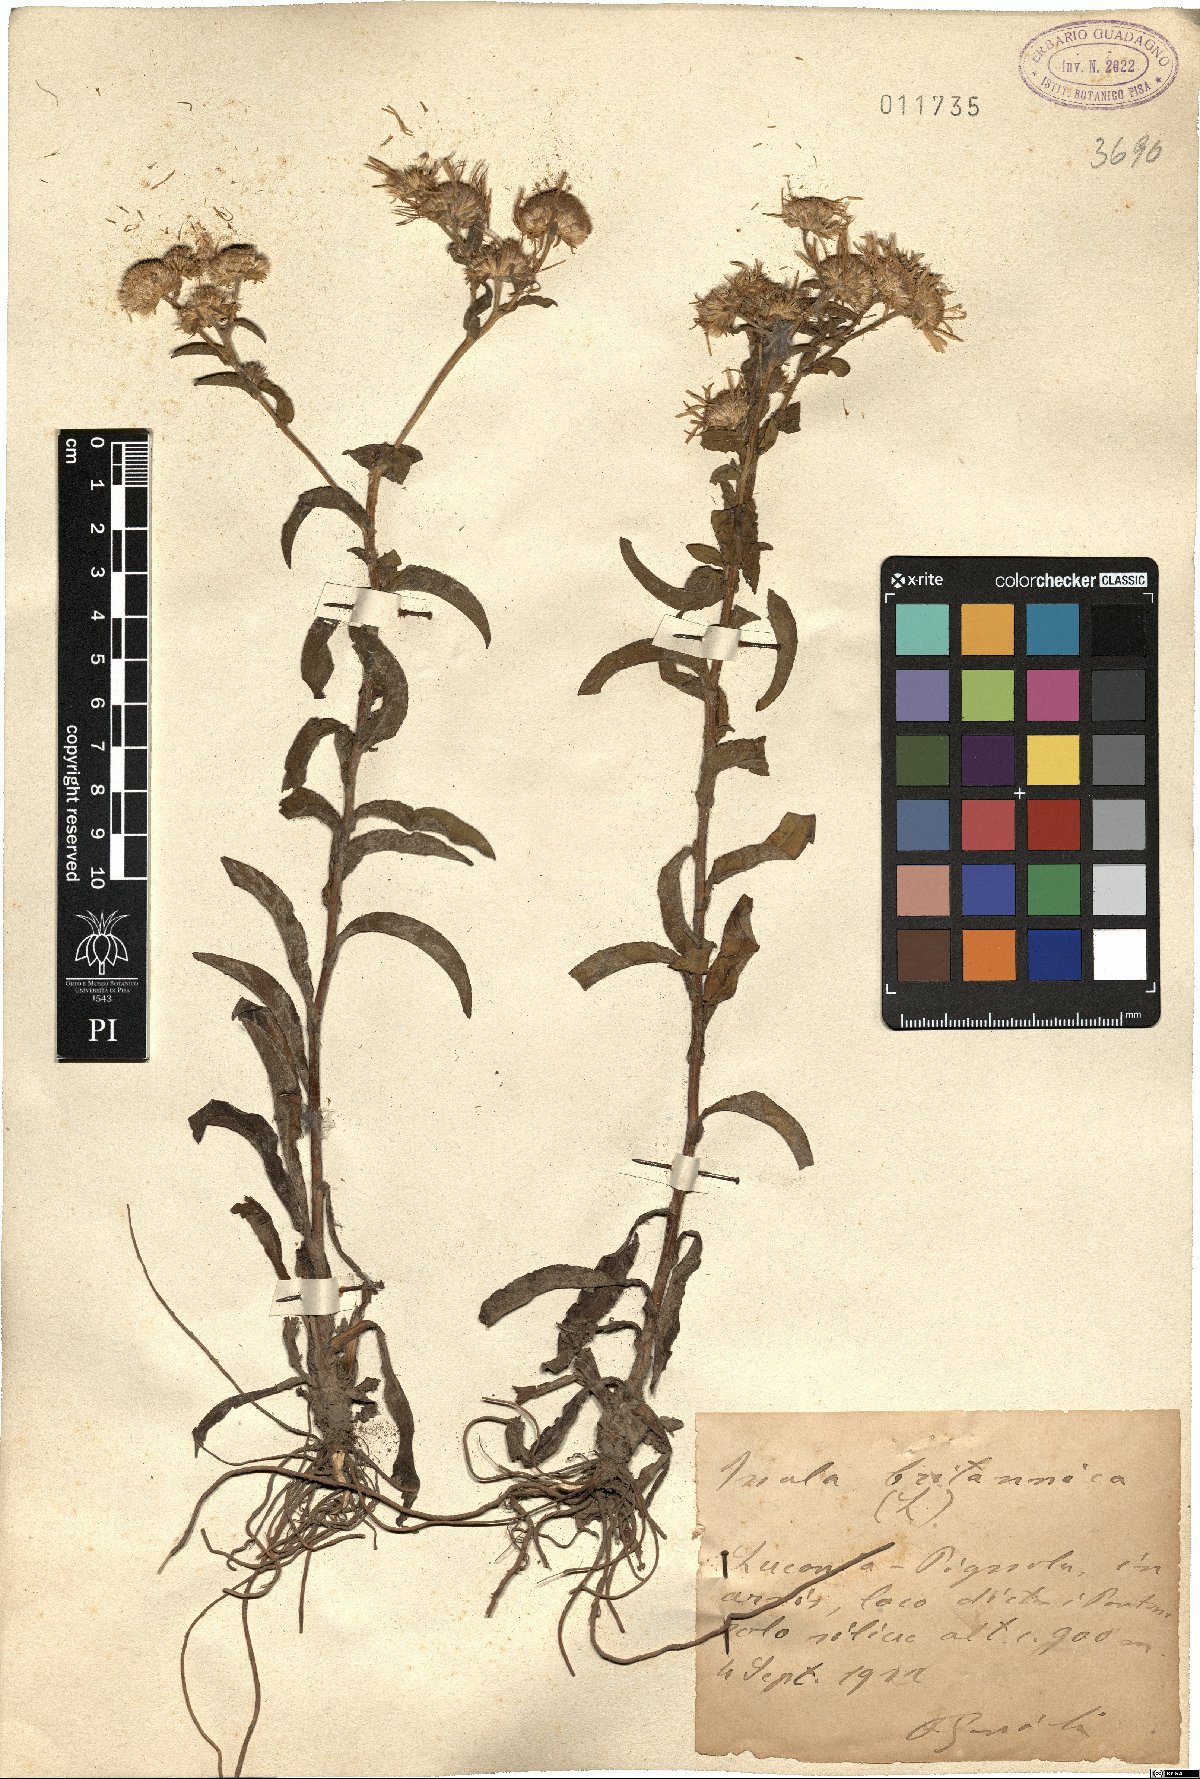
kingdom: Plantae
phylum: Tracheophyta
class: Magnoliopsida
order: Asterales
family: Asteraceae
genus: Pentanema
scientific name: Pentanema britannicum
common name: British elecampane
